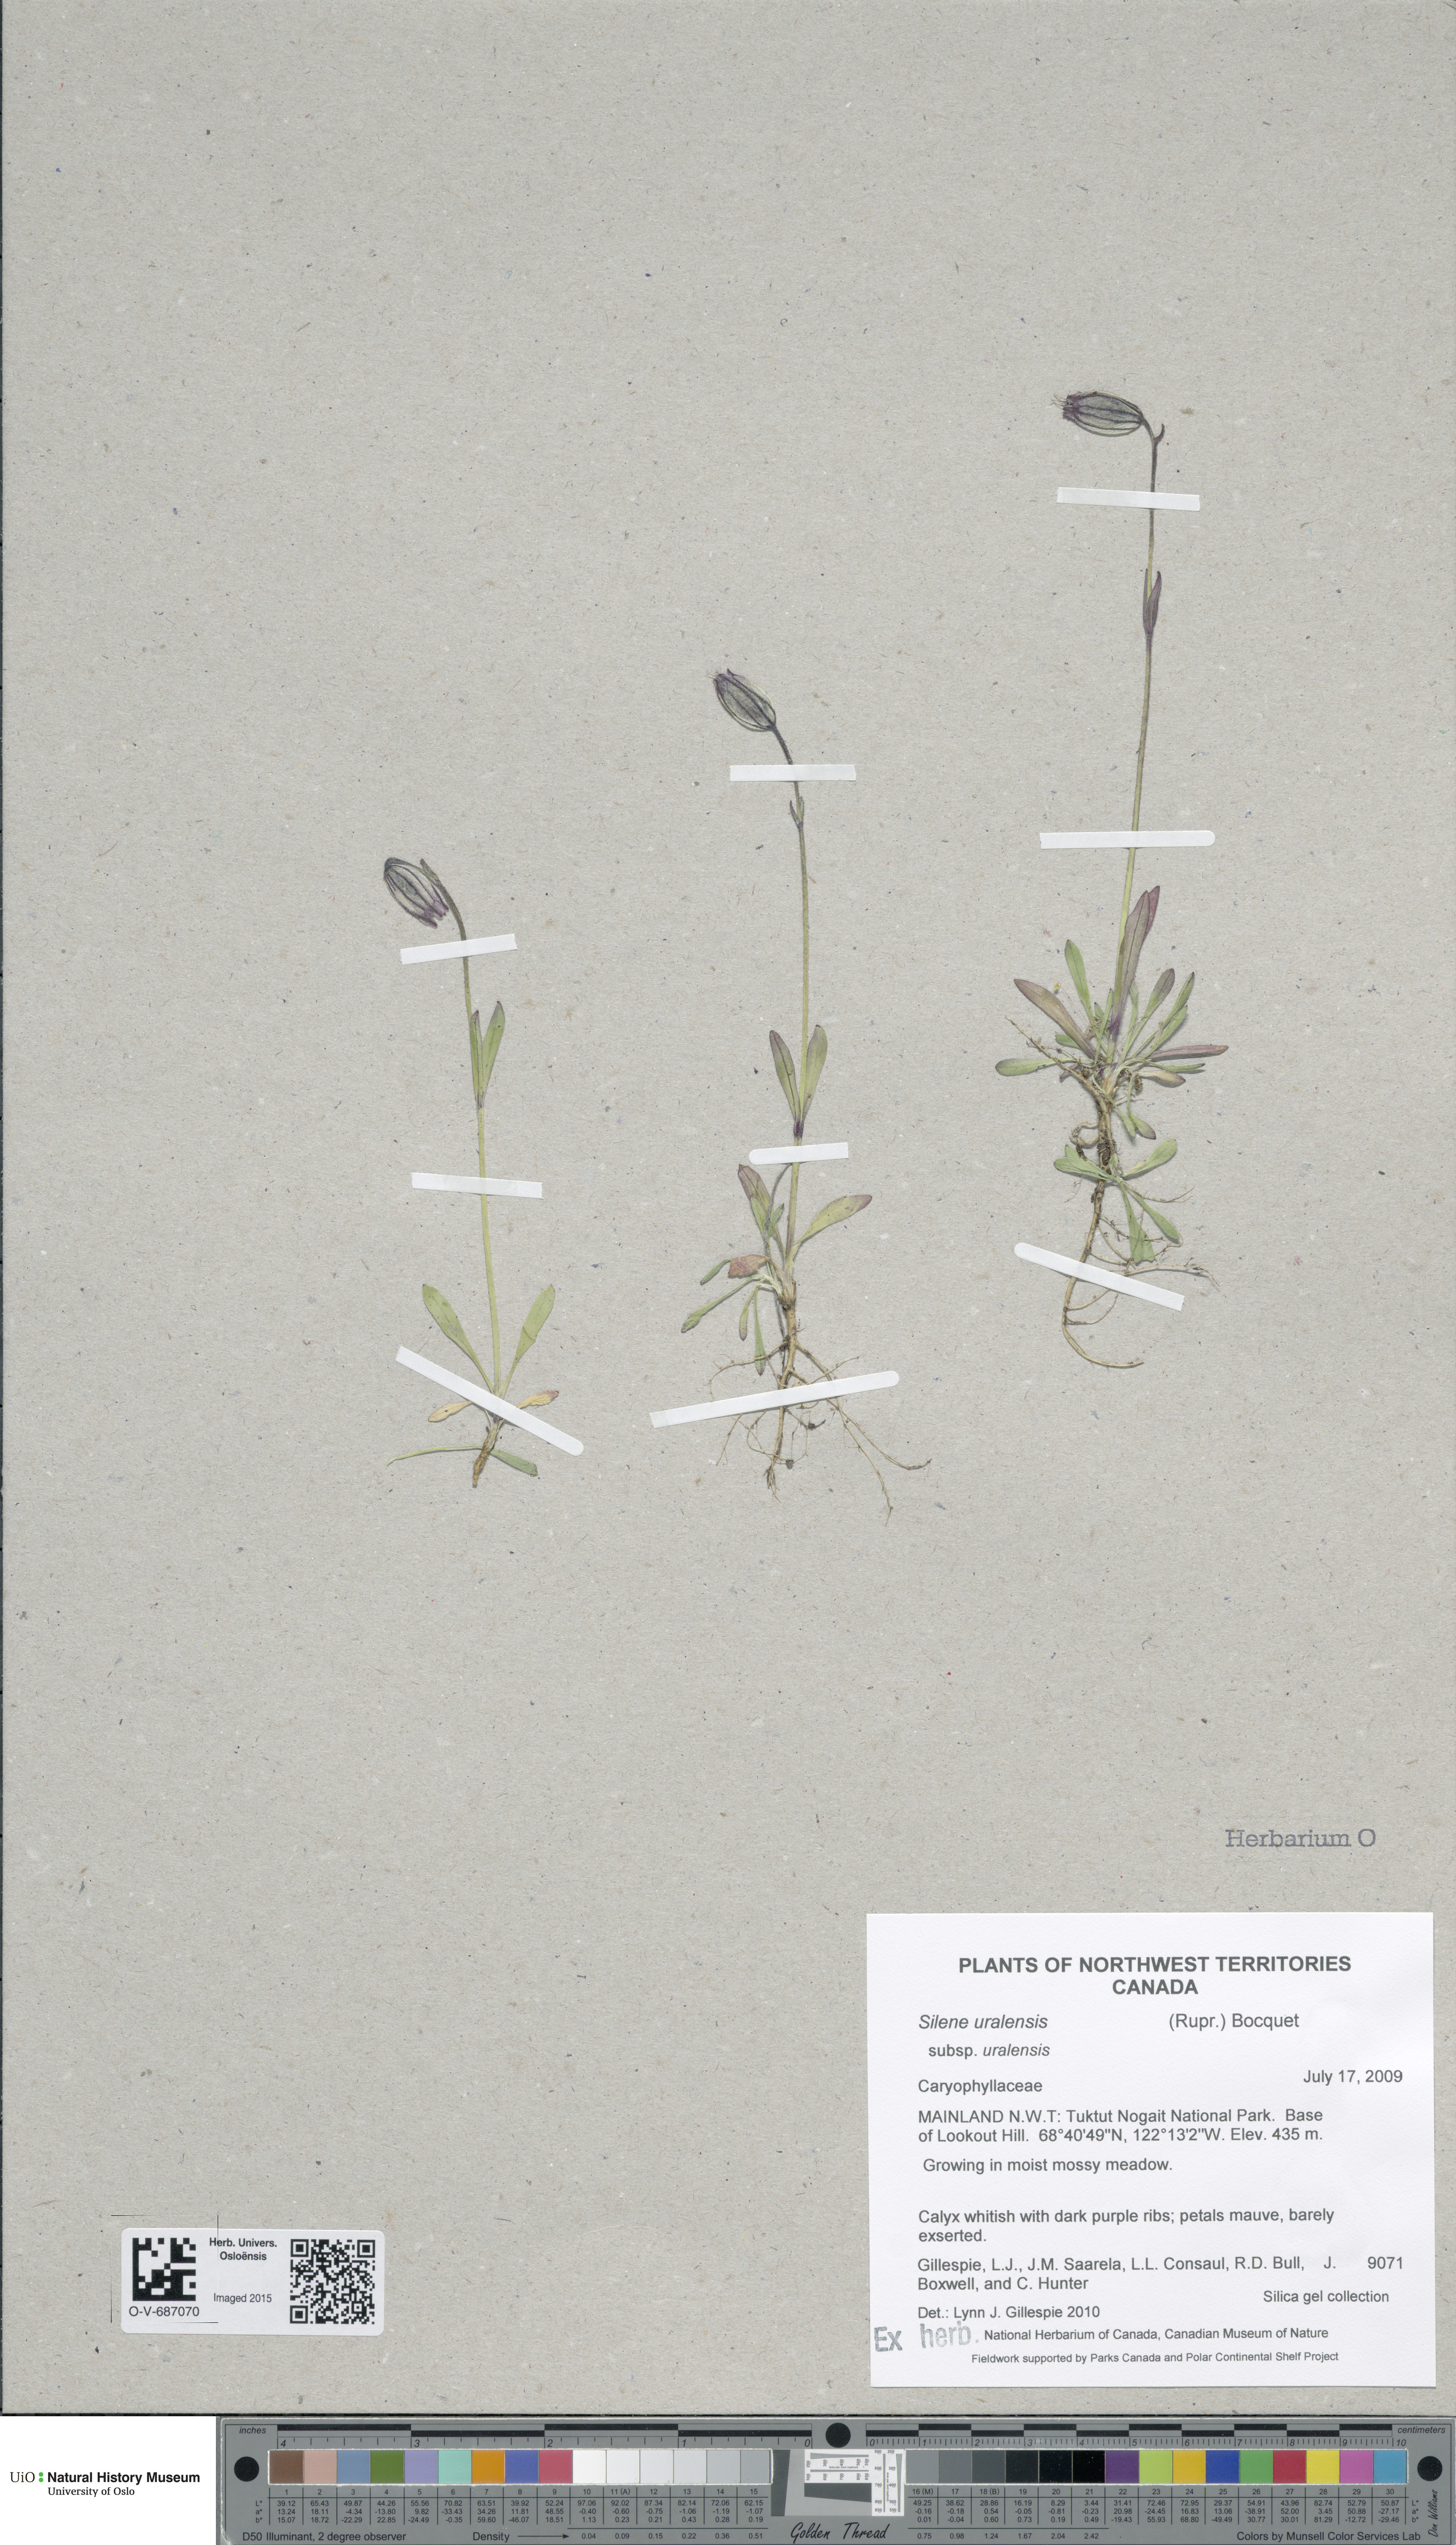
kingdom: Plantae
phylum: Tracheophyta
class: Magnoliopsida
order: Caryophyllales
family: Caryophyllaceae
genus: Silene
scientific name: Silene uralensis
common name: Nodding campion
